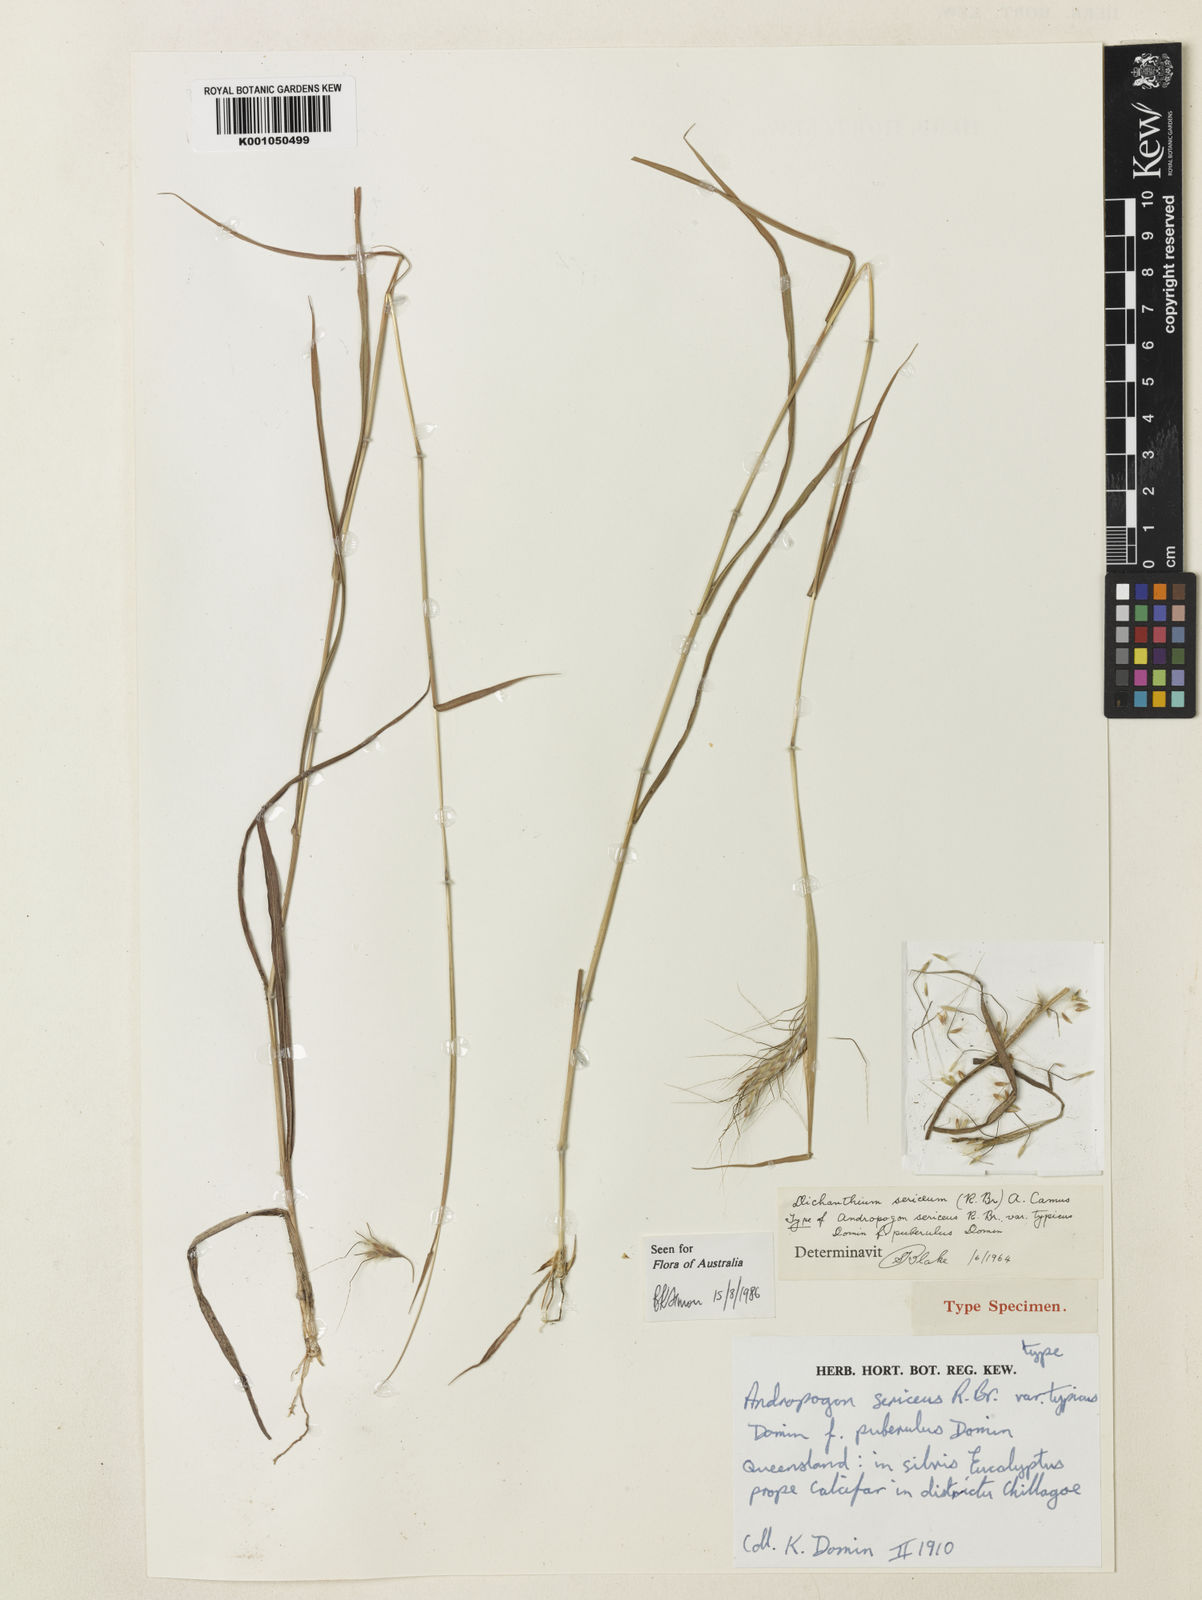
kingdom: Plantae
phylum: Tracheophyta
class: Liliopsida
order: Poales
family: Poaceae
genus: Dichanthium
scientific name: Dichanthium sericeum
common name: Silky bluestem
